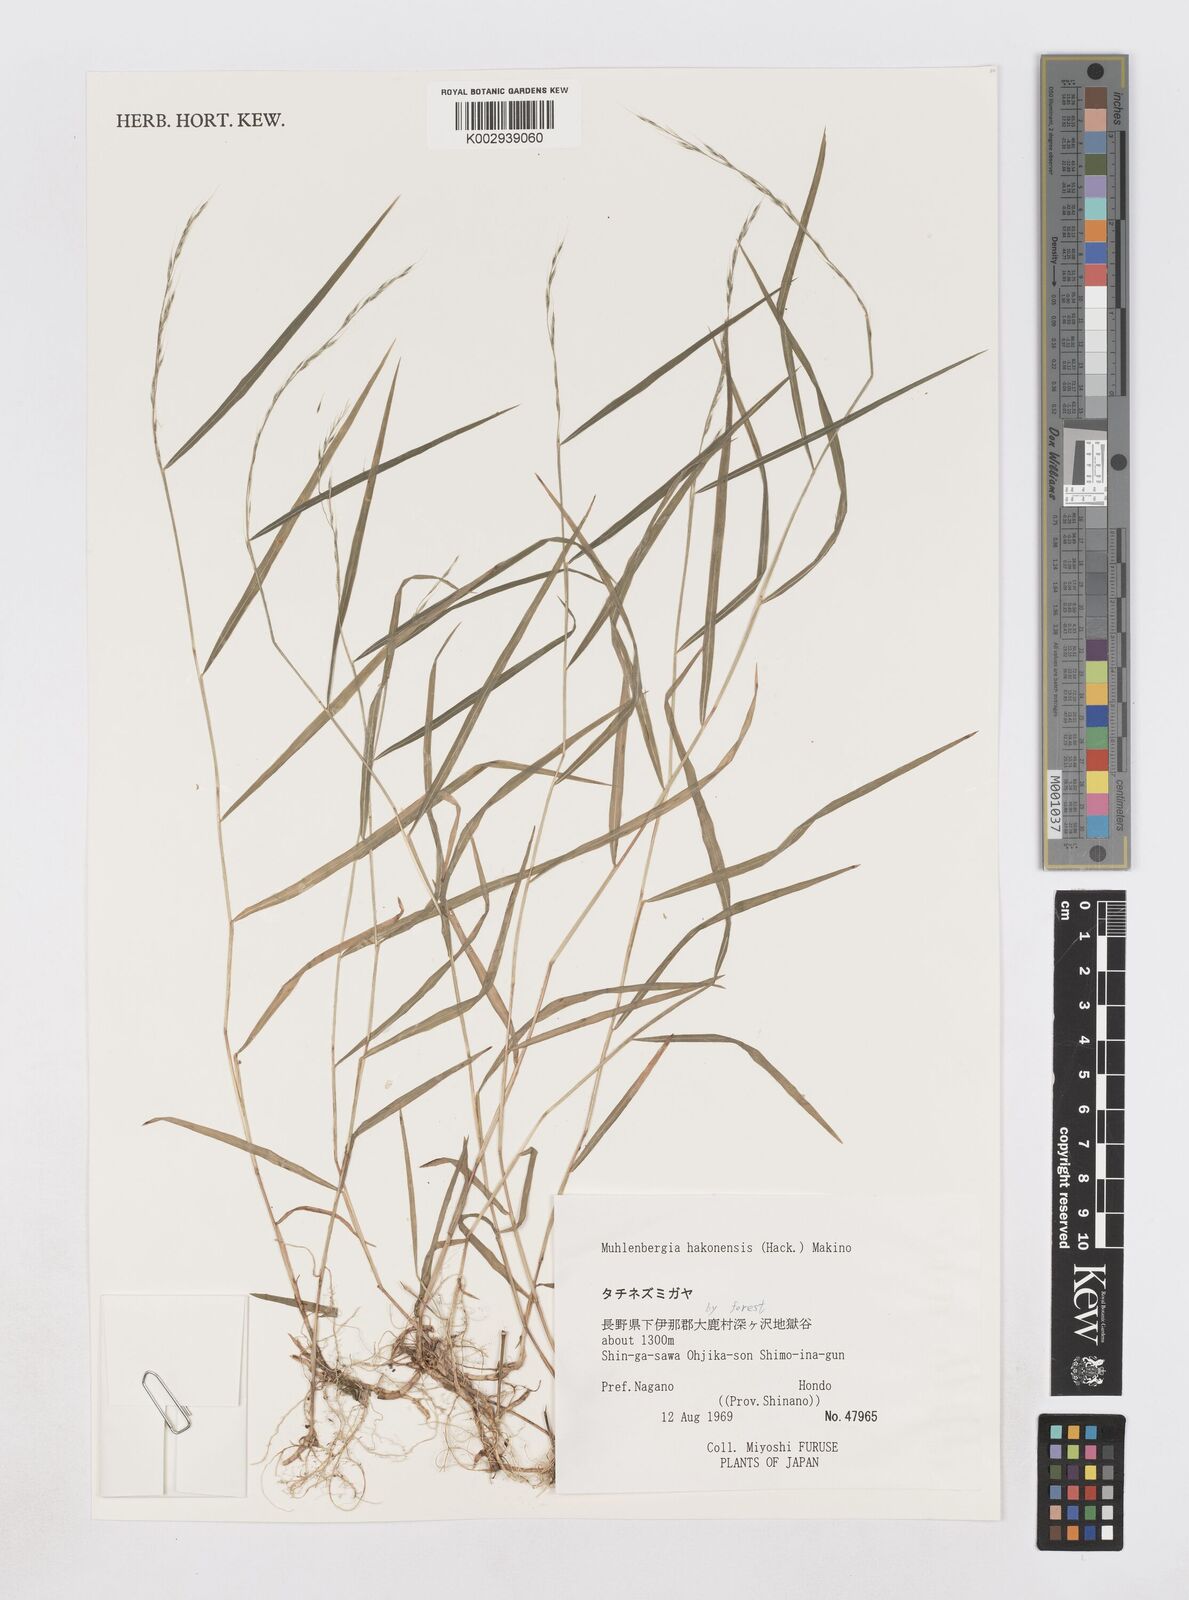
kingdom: Plantae
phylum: Tracheophyta
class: Liliopsida
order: Poales
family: Poaceae
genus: Muhlenbergia
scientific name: Muhlenbergia hakonensis
